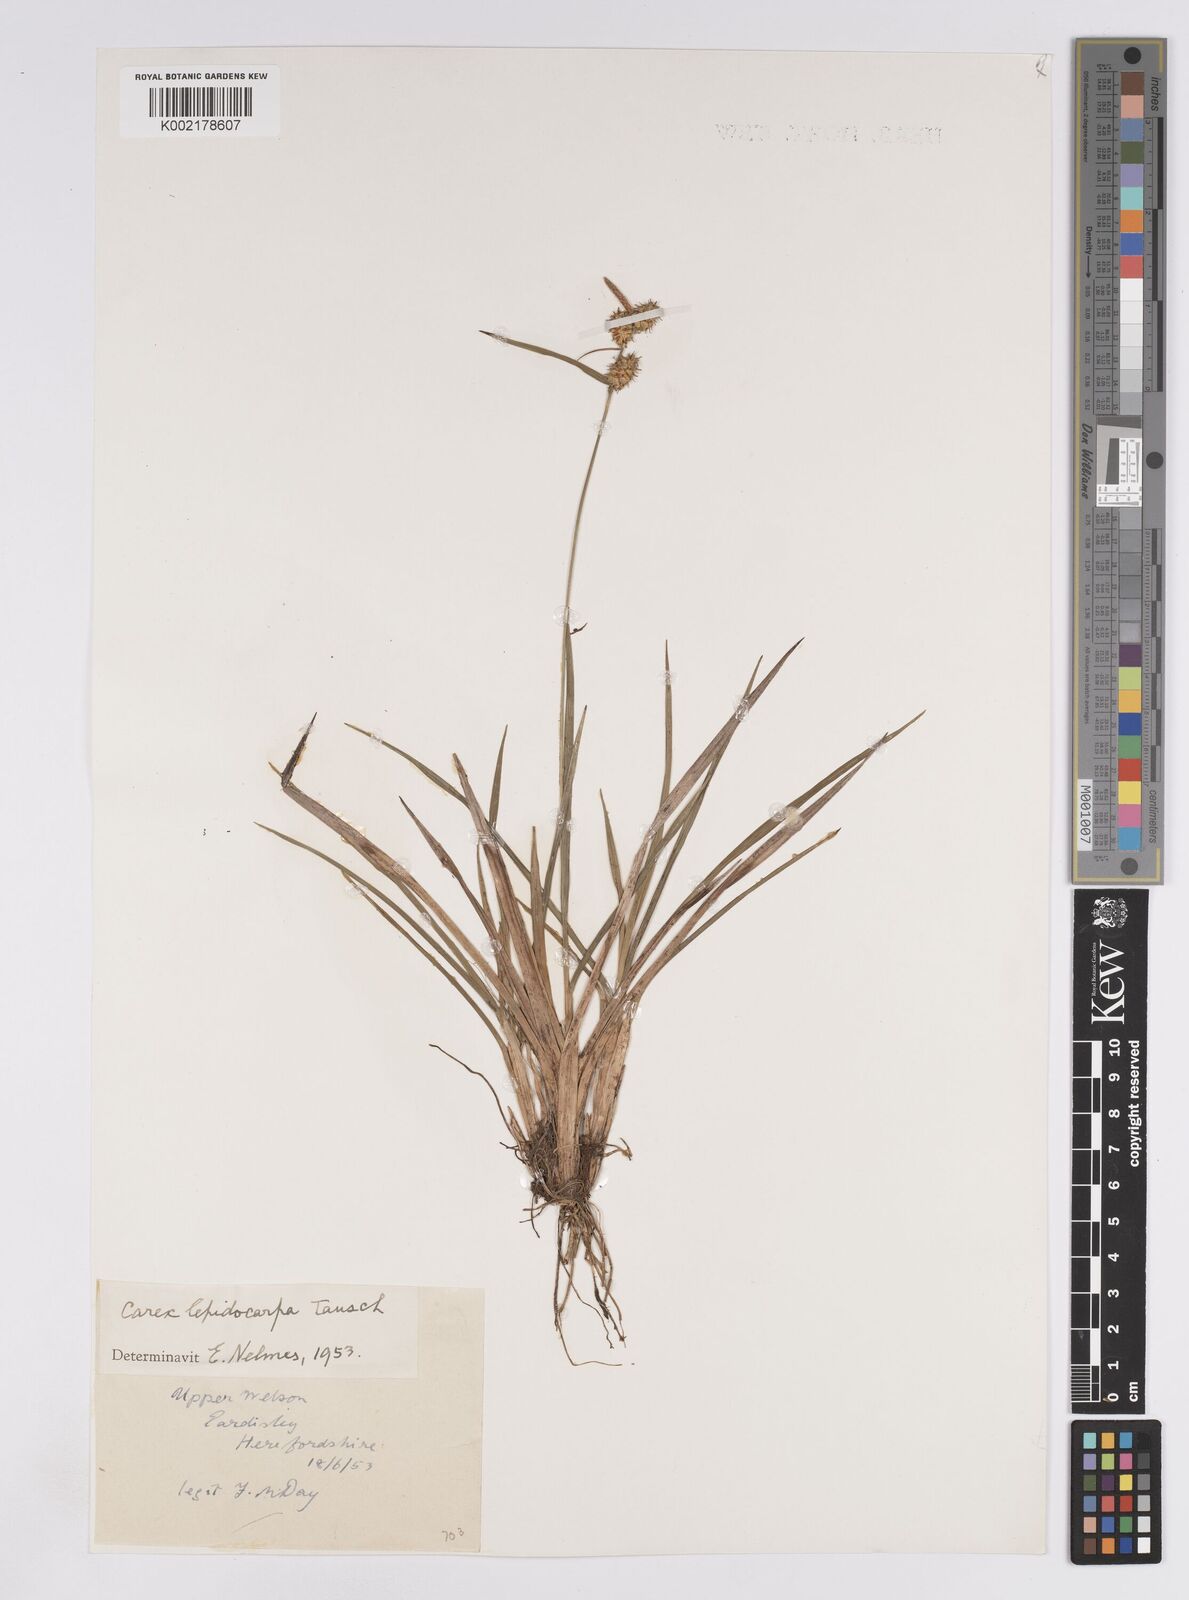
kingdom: Plantae
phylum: Tracheophyta
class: Liliopsida
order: Poales
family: Cyperaceae
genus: Carex
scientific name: Carex lepidocarpa
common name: Long-stalked yellow-sedge
